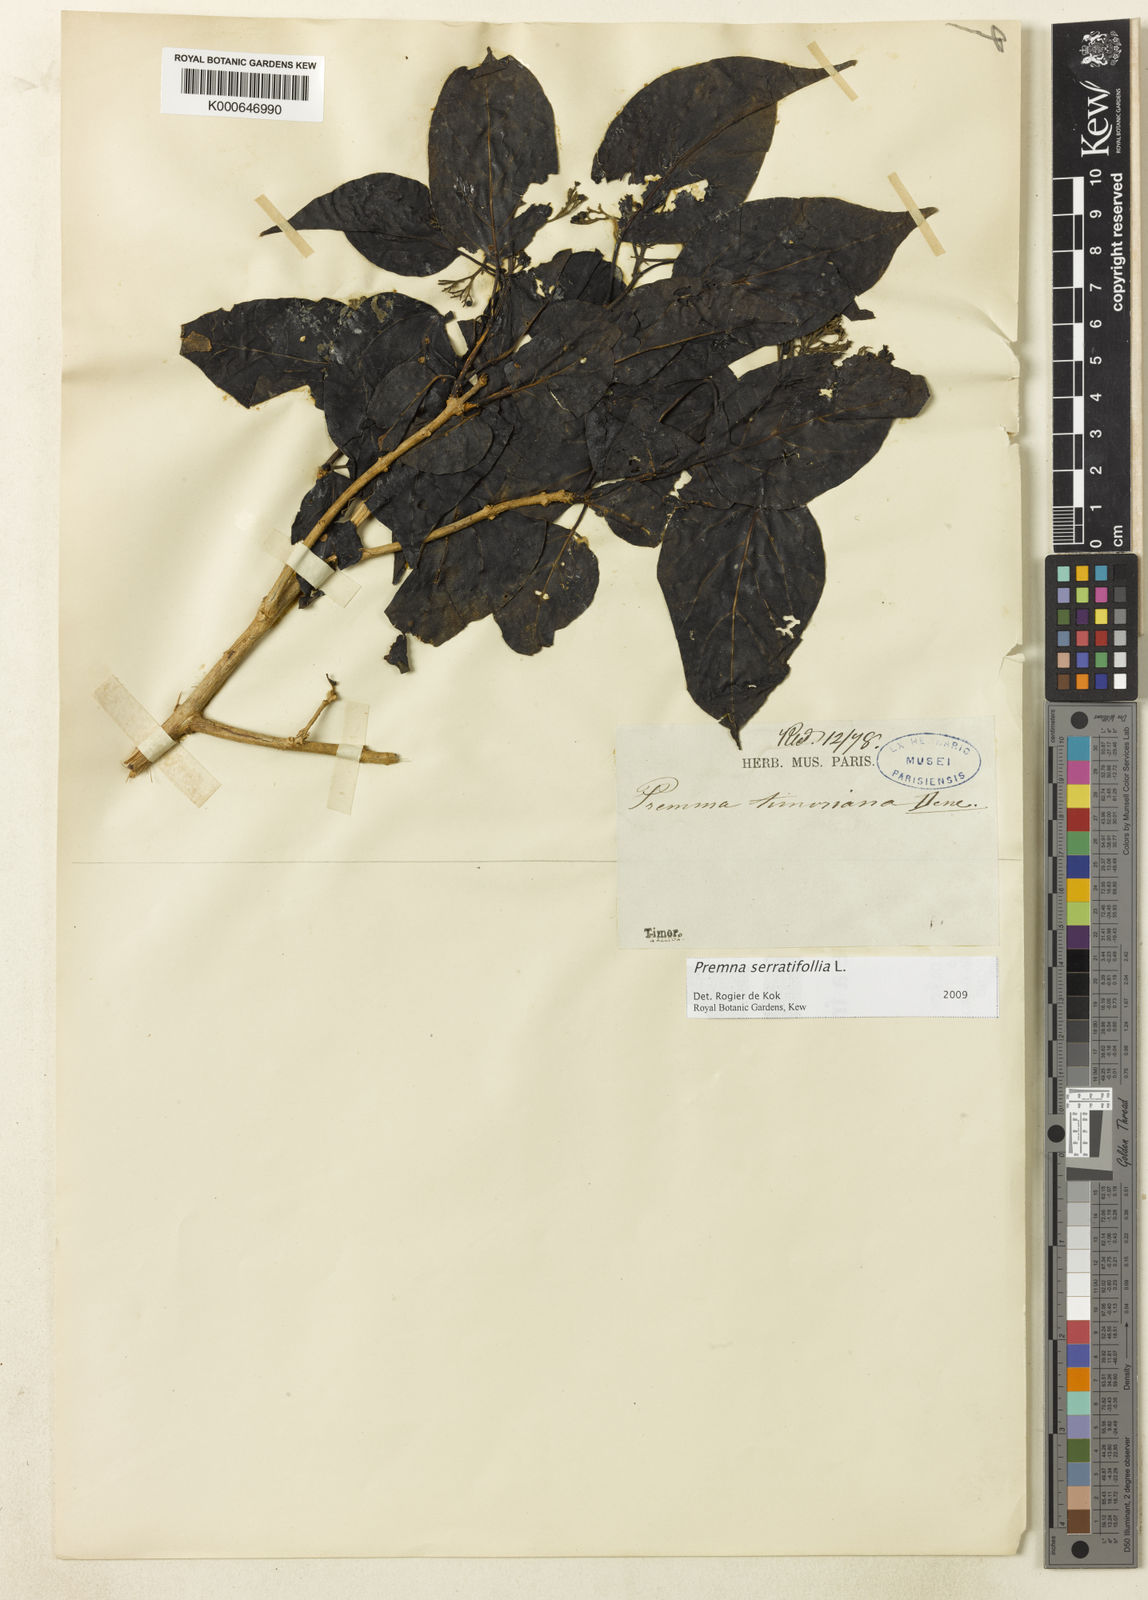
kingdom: Plantae
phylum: Tracheophyta
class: Magnoliopsida
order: Lamiales
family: Lamiaceae
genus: Premna
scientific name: Premna serratifolia
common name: Bastard guelder
